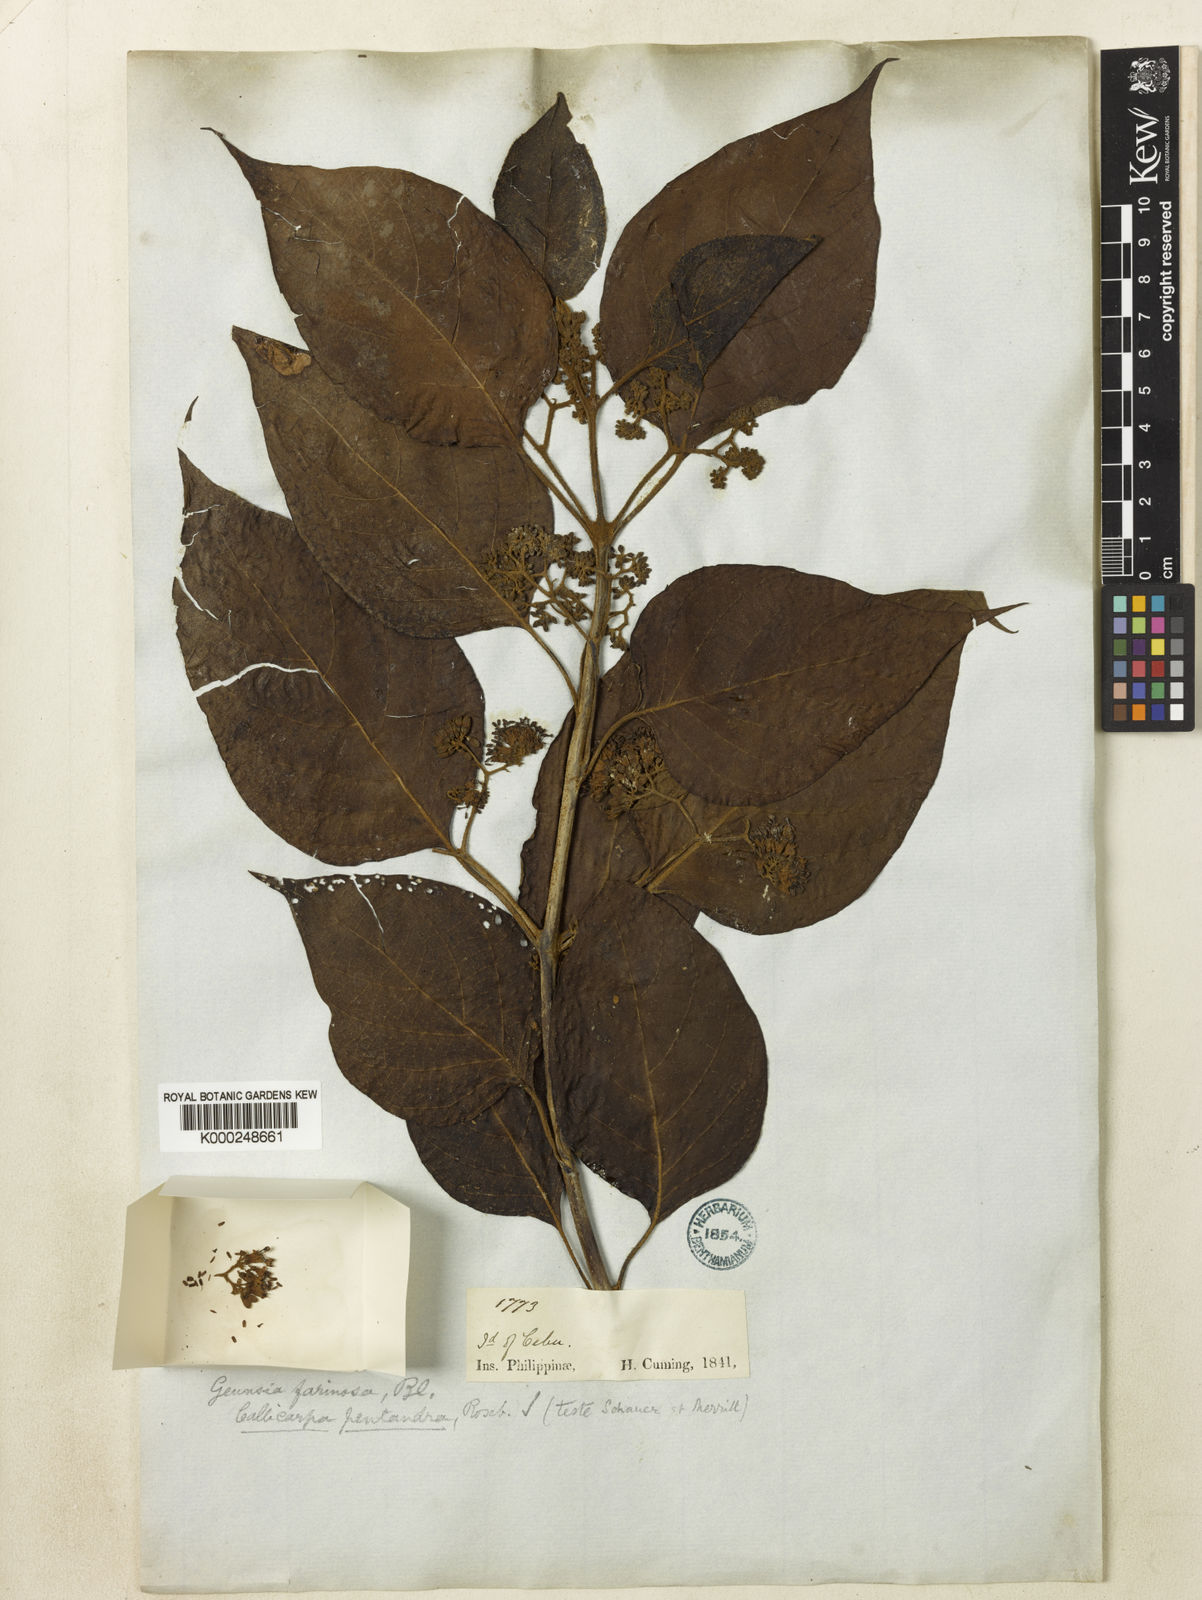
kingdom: Plantae
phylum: Tracheophyta
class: Magnoliopsida
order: Lamiales
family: Lamiaceae
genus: Callicarpa
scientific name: Callicarpa pentandra
